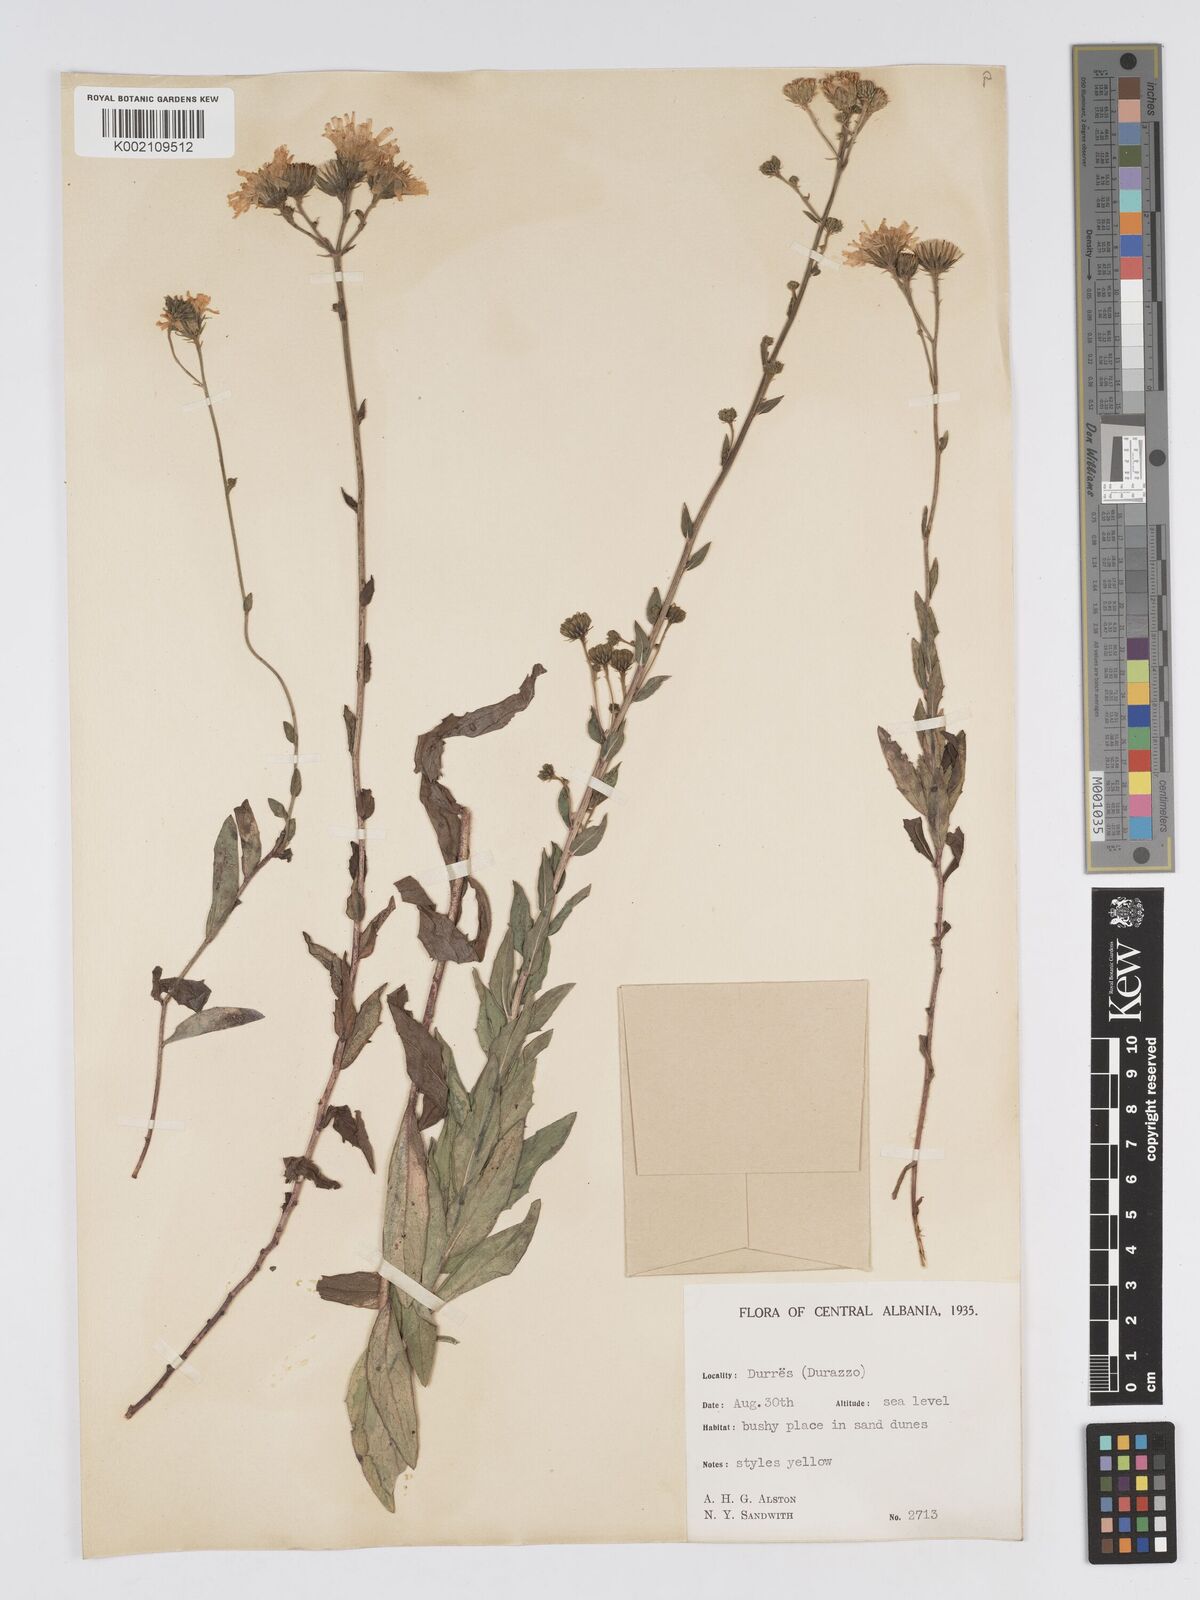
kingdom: Plantae
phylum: Tracheophyta
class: Magnoliopsida
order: Asterales
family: Asteraceae
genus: Hieracium
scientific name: Hieracium
